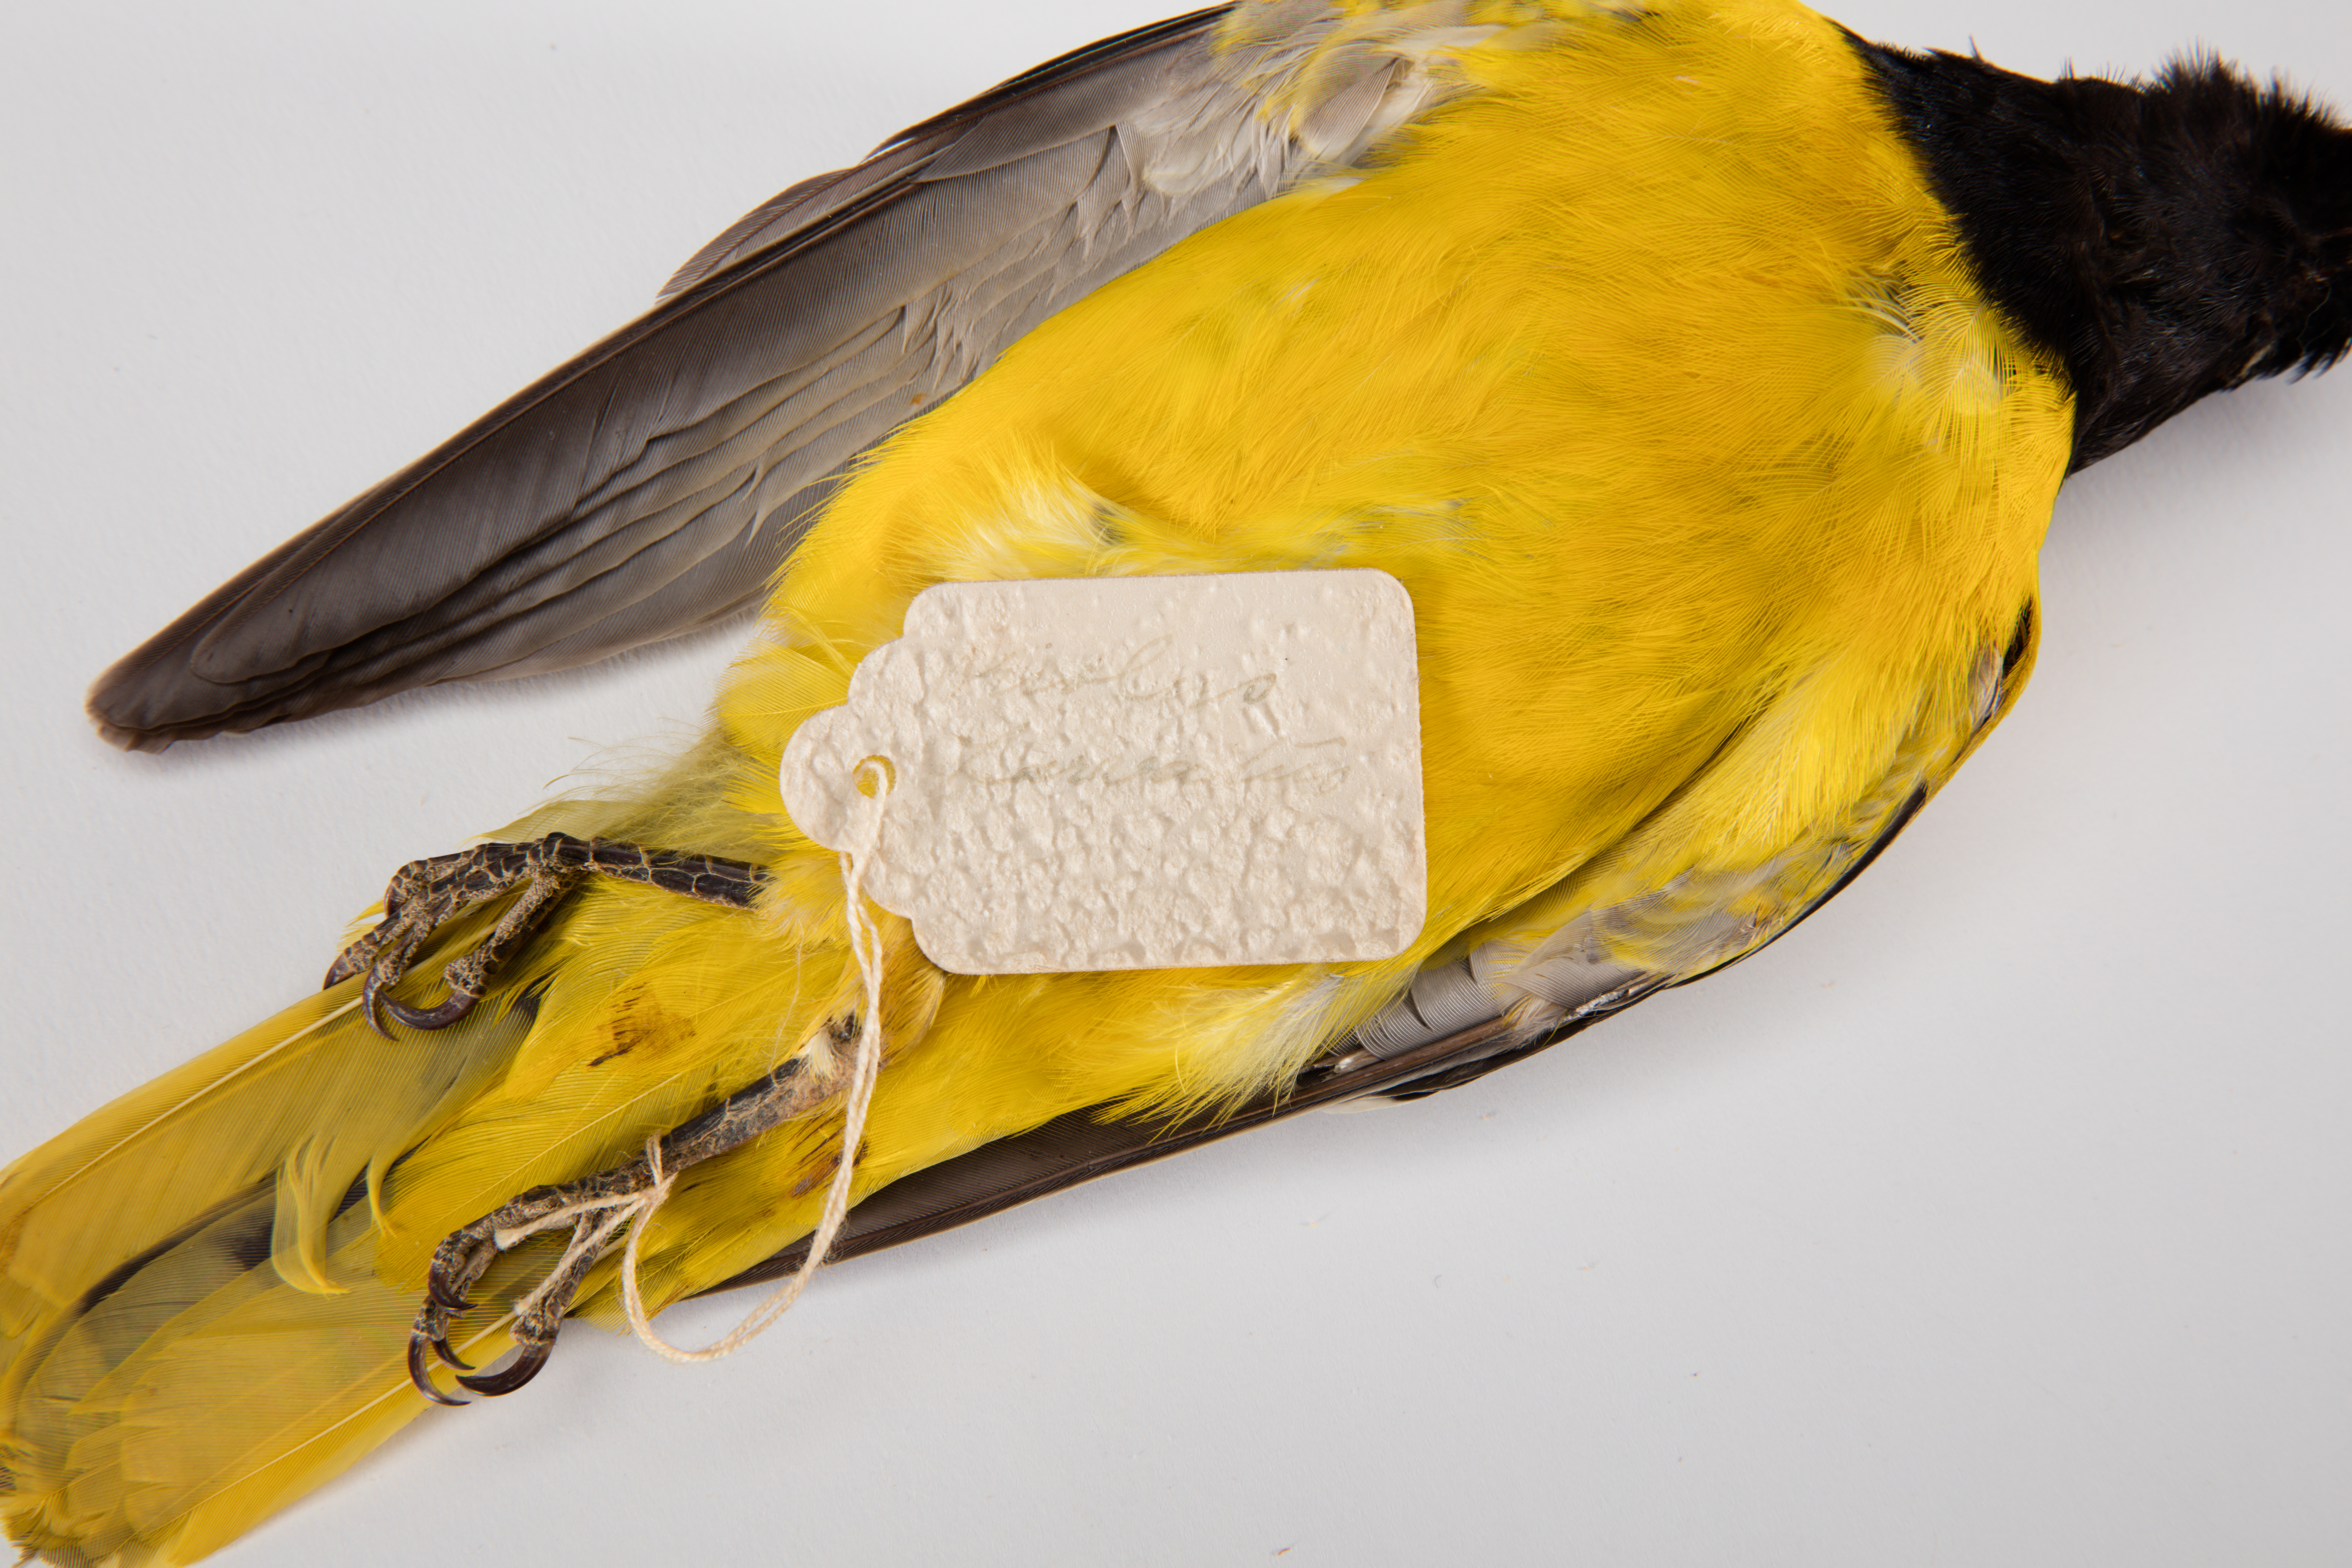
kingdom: Animalia
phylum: Chordata
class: Aves
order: Passeriformes
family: Oriolidae
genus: Oriolus
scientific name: Oriolus larvatus
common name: Black-headed oriole
